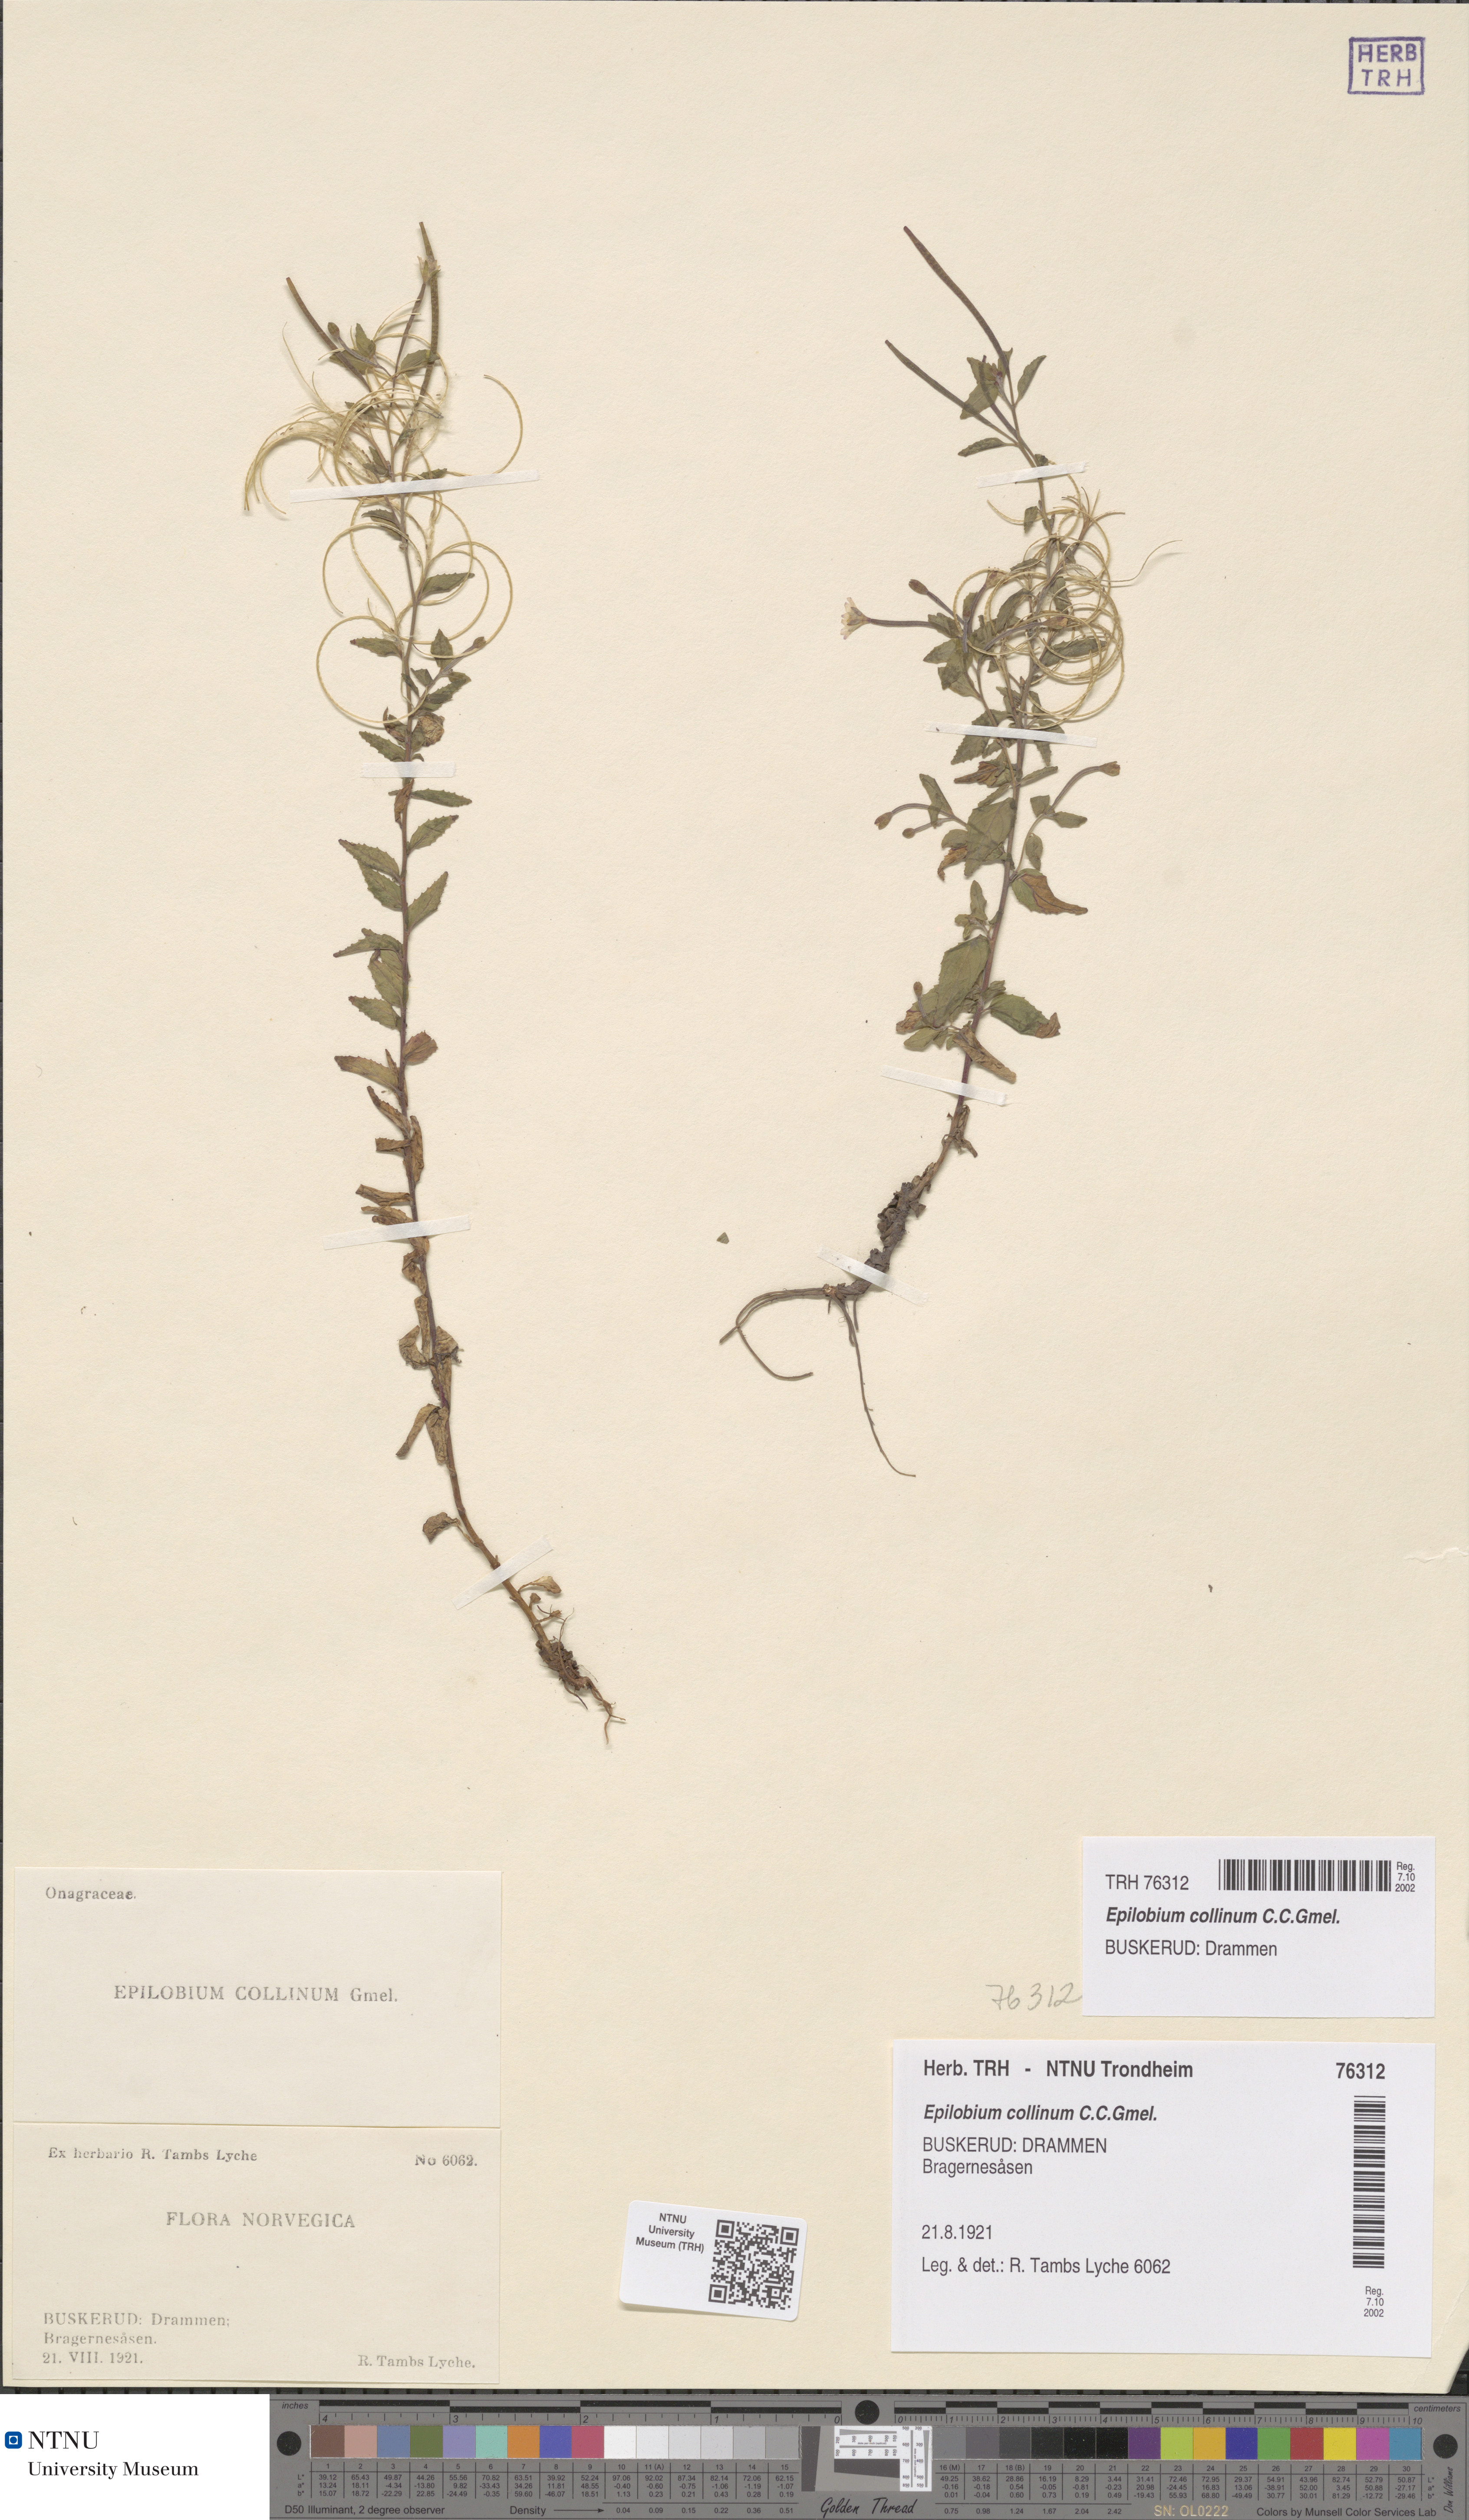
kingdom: Plantae
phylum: Tracheophyta
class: Magnoliopsida
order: Myrtales
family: Onagraceae
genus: Epilobium
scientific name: Epilobium collinum
